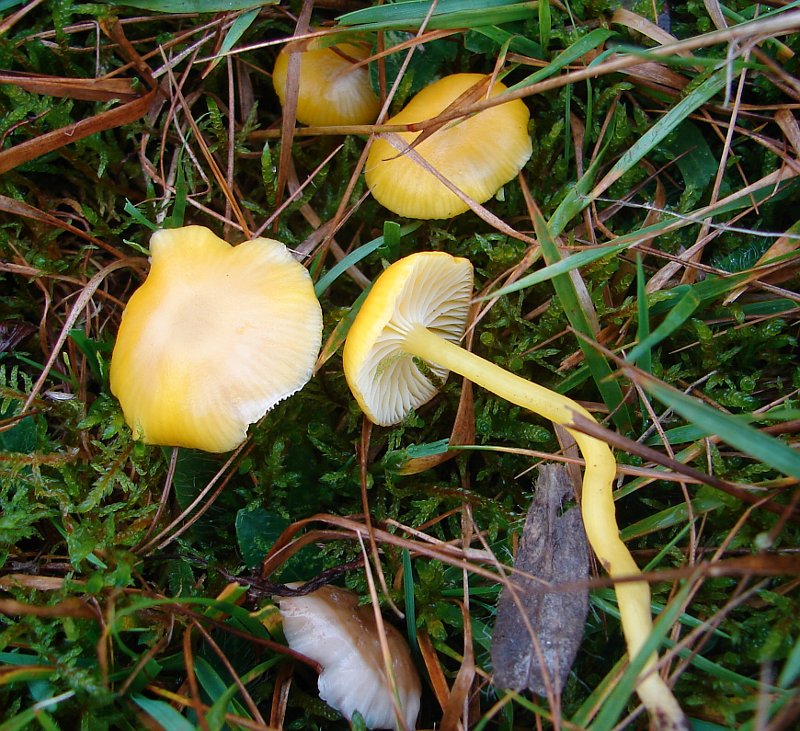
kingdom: Fungi
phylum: Basidiomycota
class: Agaricomycetes
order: Agaricales
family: Hygrophoraceae
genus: Hygrocybe
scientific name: Hygrocybe ceracea
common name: voksgul vokshat
